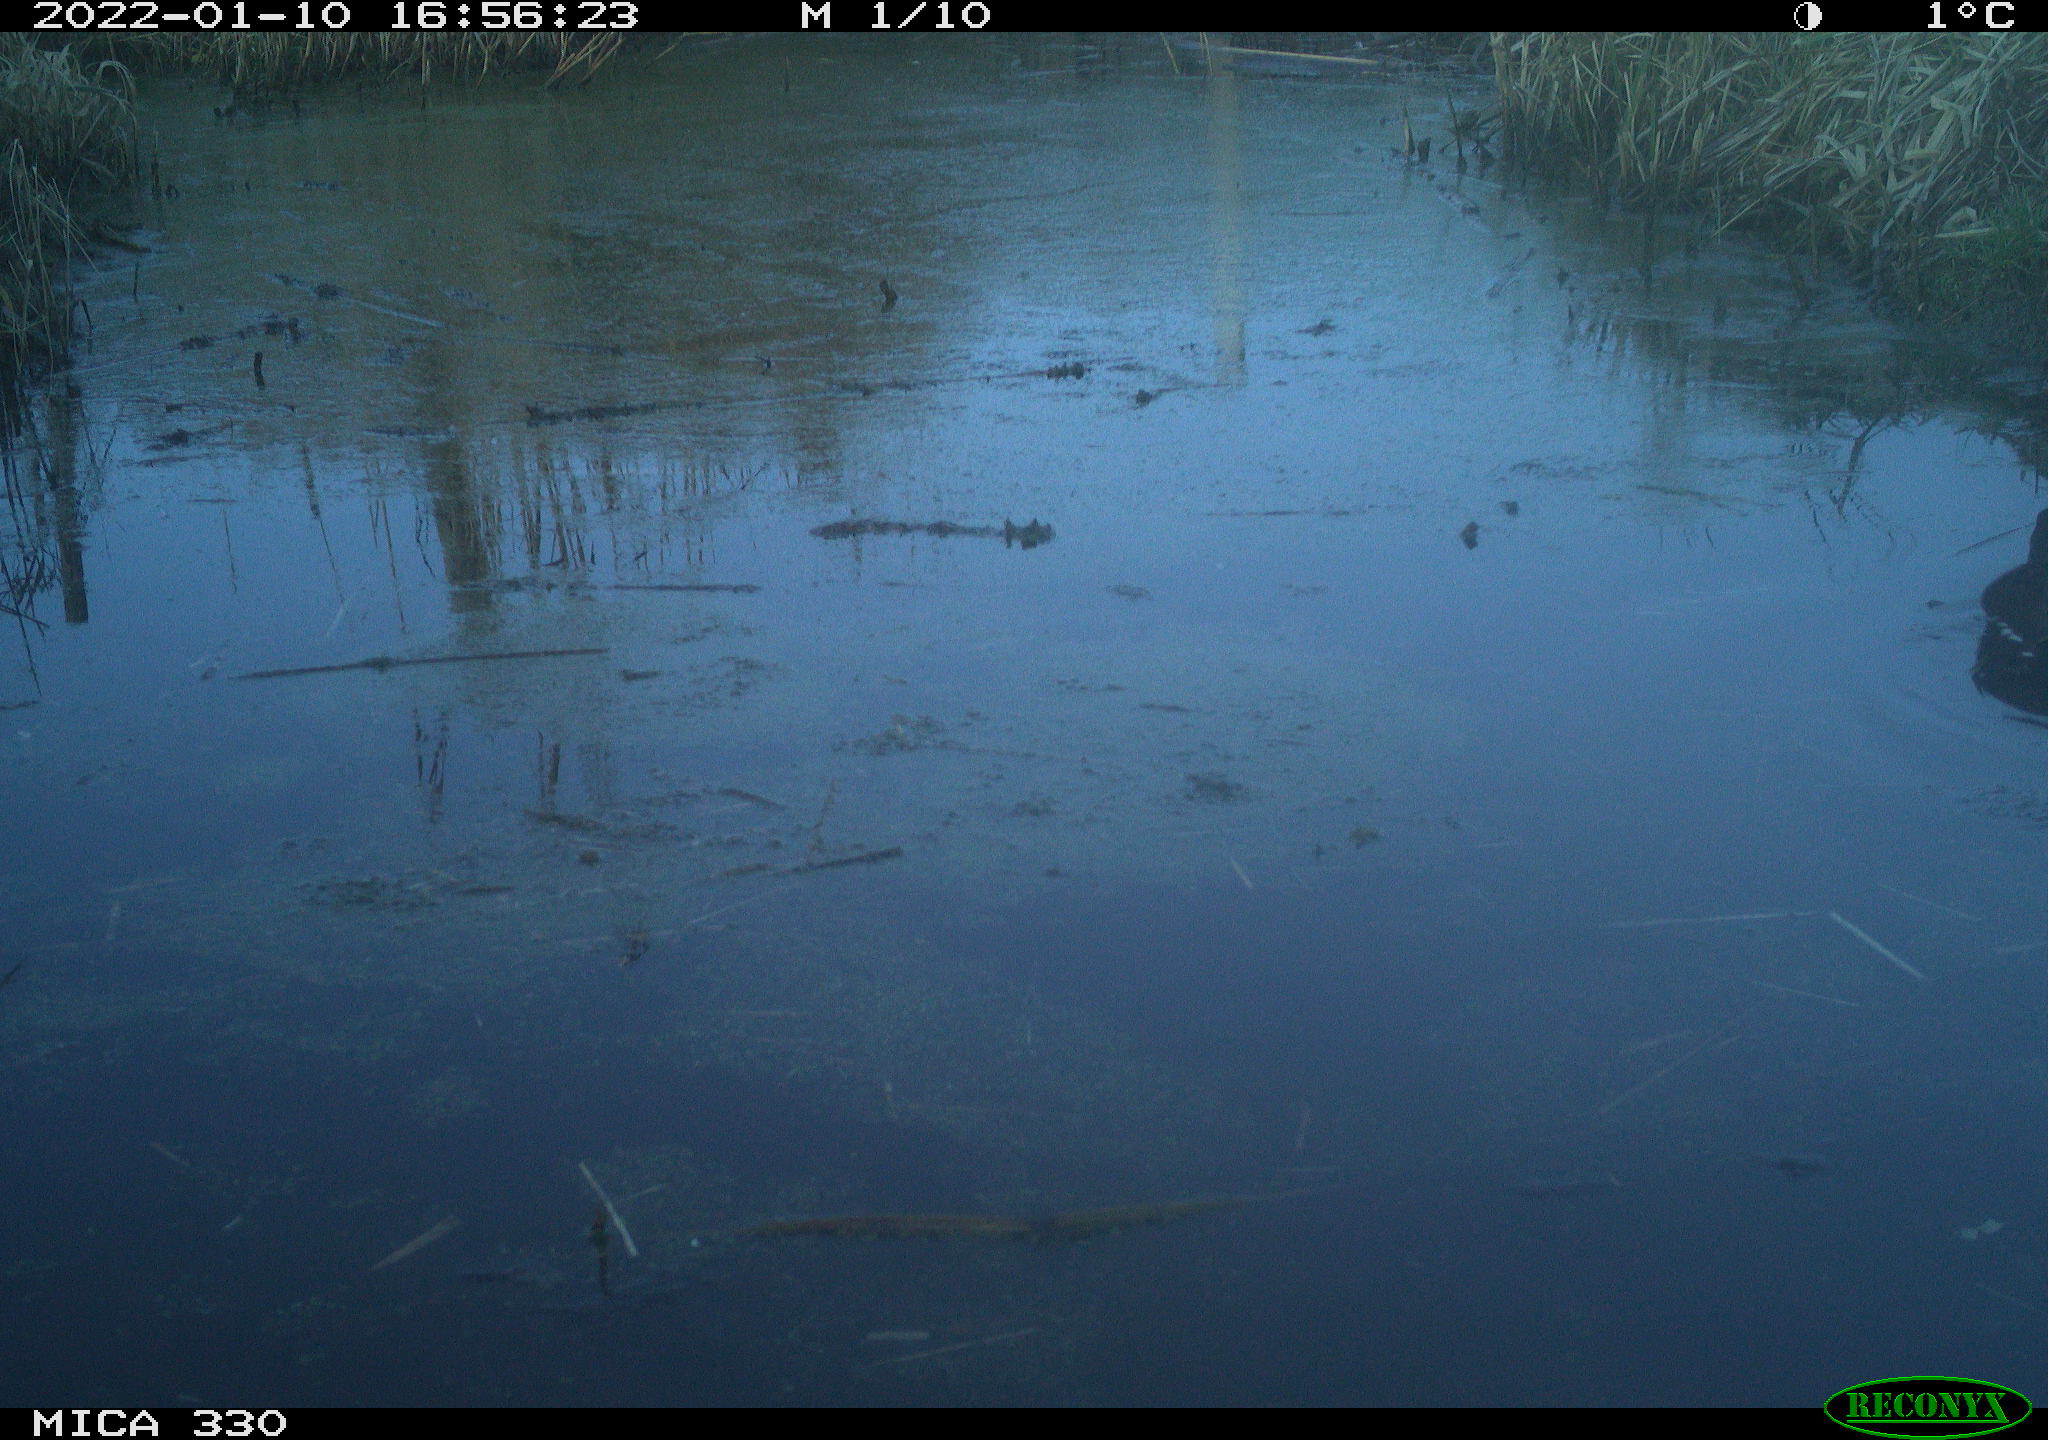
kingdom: Animalia
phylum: Chordata
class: Aves
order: Gruiformes
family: Rallidae
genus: Gallinula
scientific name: Gallinula chloropus
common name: Common moorhen
